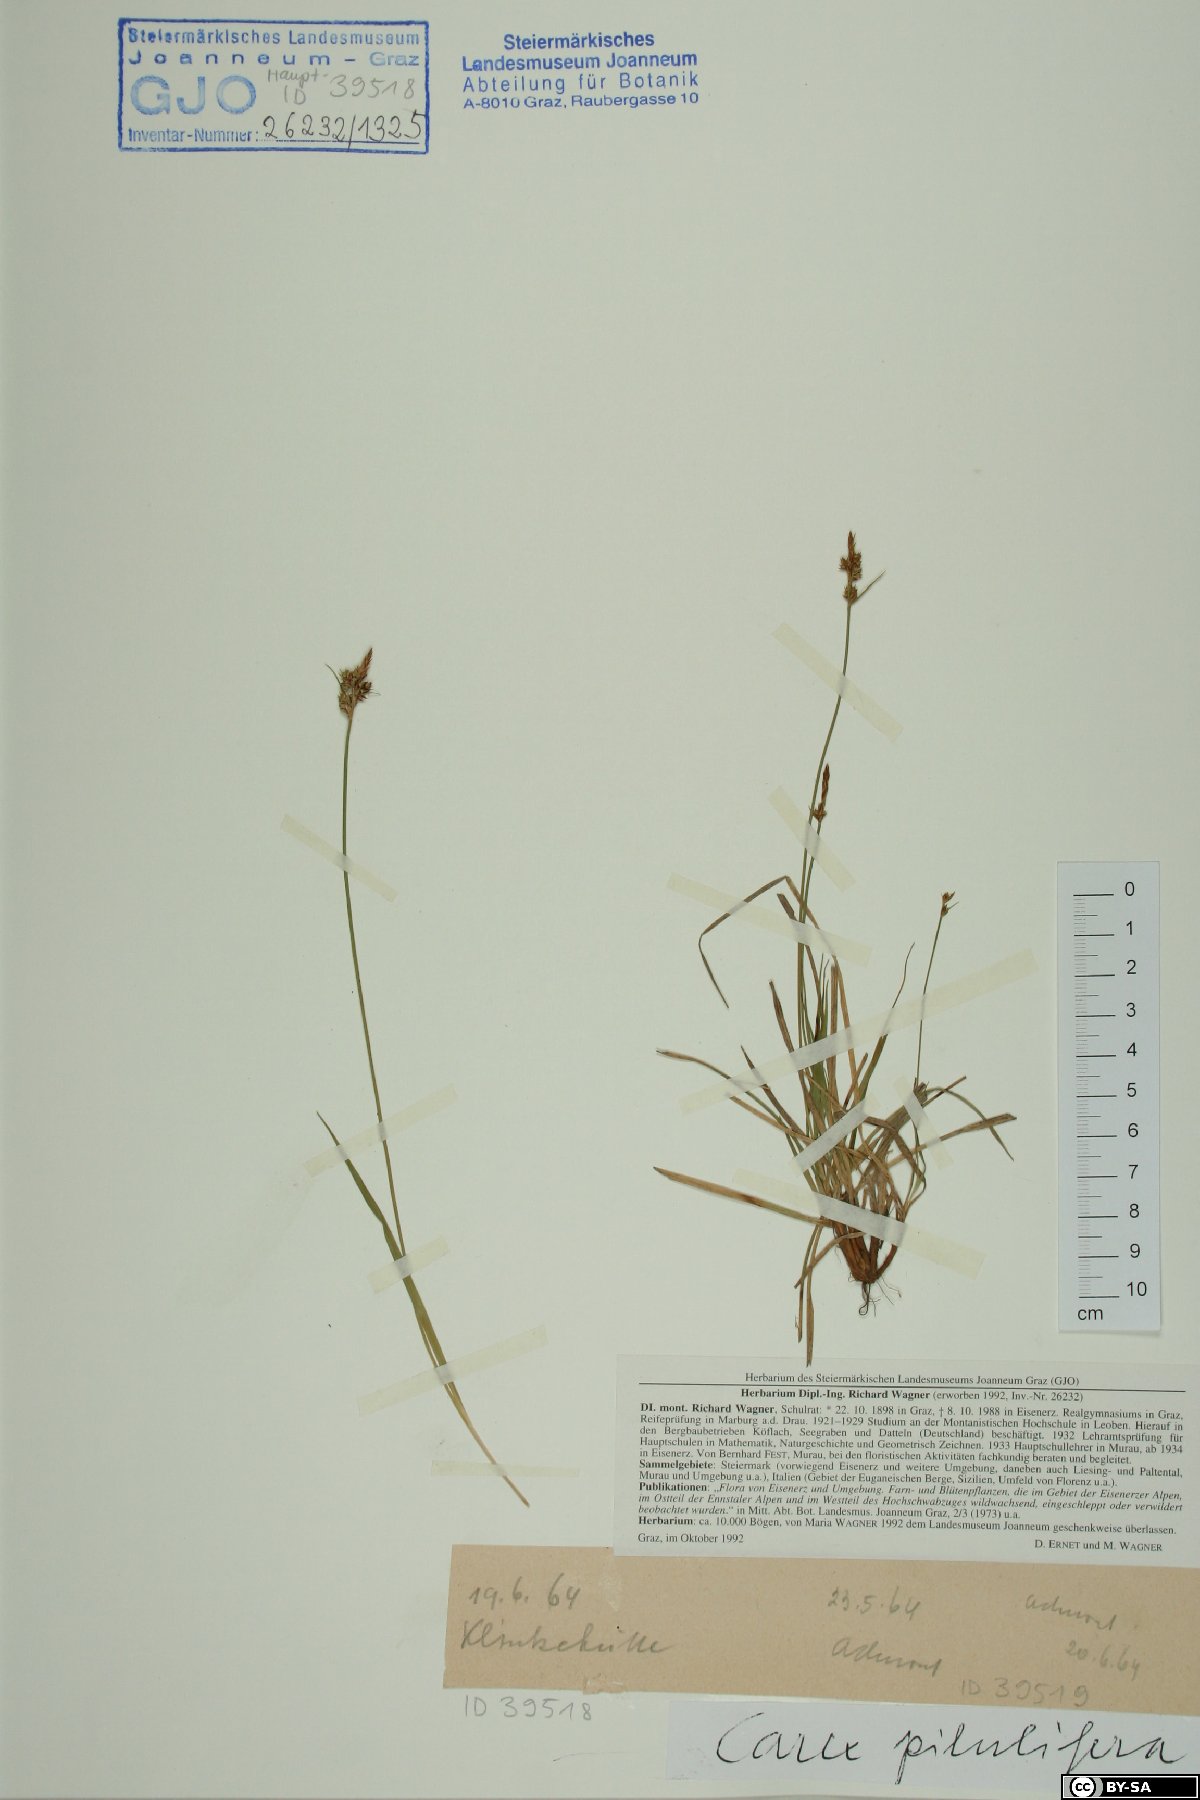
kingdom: Plantae
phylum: Tracheophyta
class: Liliopsida
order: Poales
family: Cyperaceae
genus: Carex
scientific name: Carex pilulifera
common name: Pill sedge
